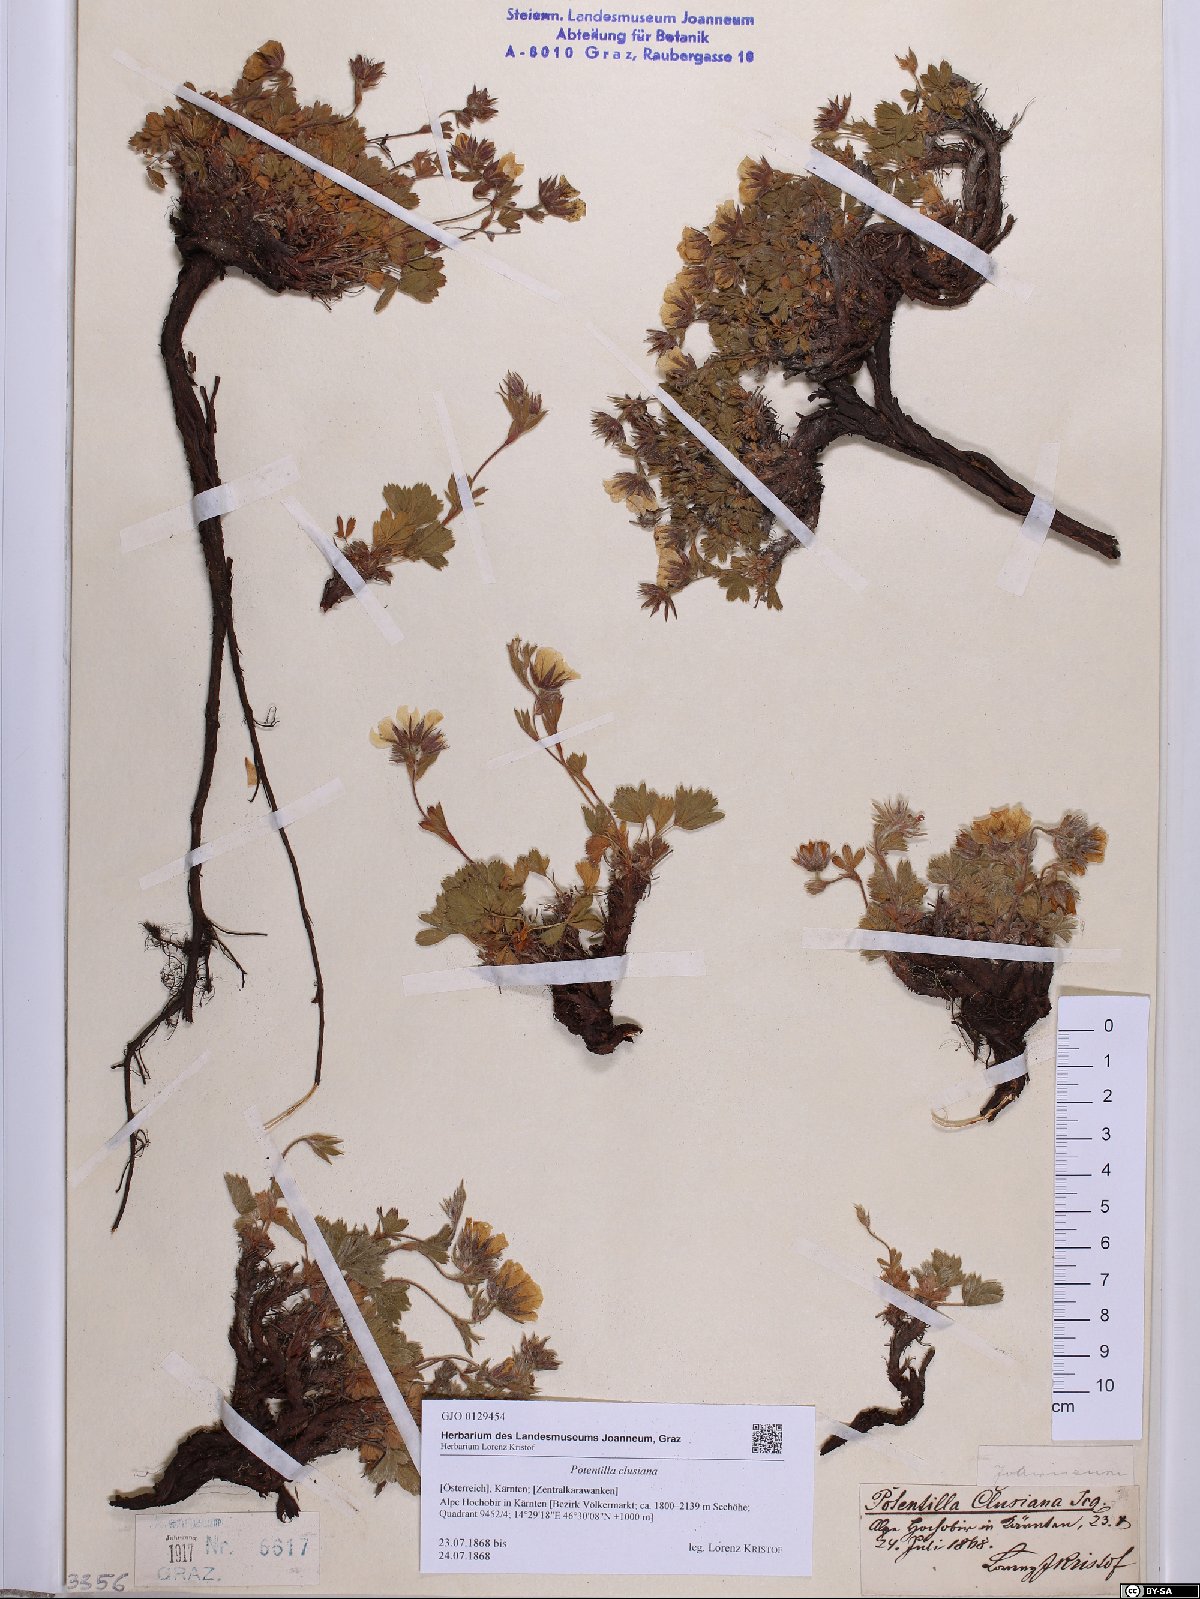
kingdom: Plantae
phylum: Tracheophyta
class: Magnoliopsida
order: Rosales
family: Rosaceae
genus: Potentilla
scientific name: Potentilla clusiana
